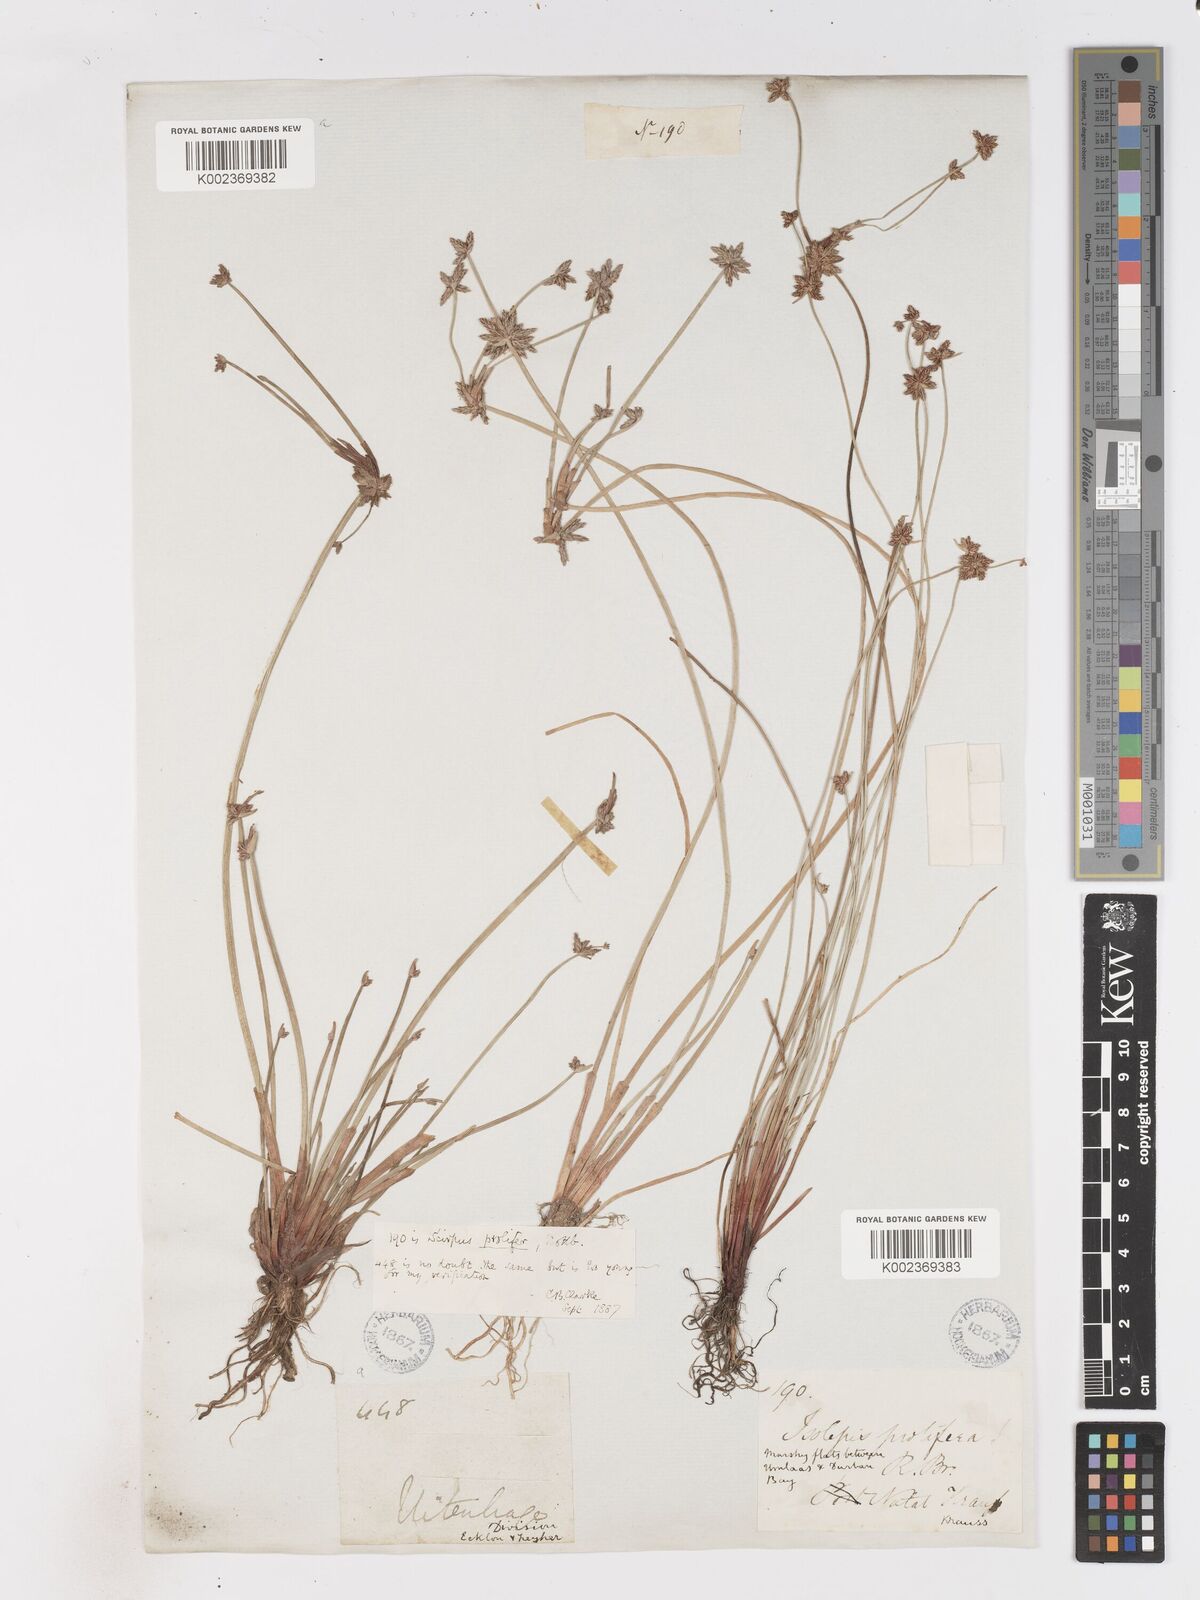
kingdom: Plantae
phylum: Tracheophyta
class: Liliopsida
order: Poales
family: Cyperaceae
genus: Isolepis
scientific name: Isolepis prolifera
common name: Proliferating bulrush
